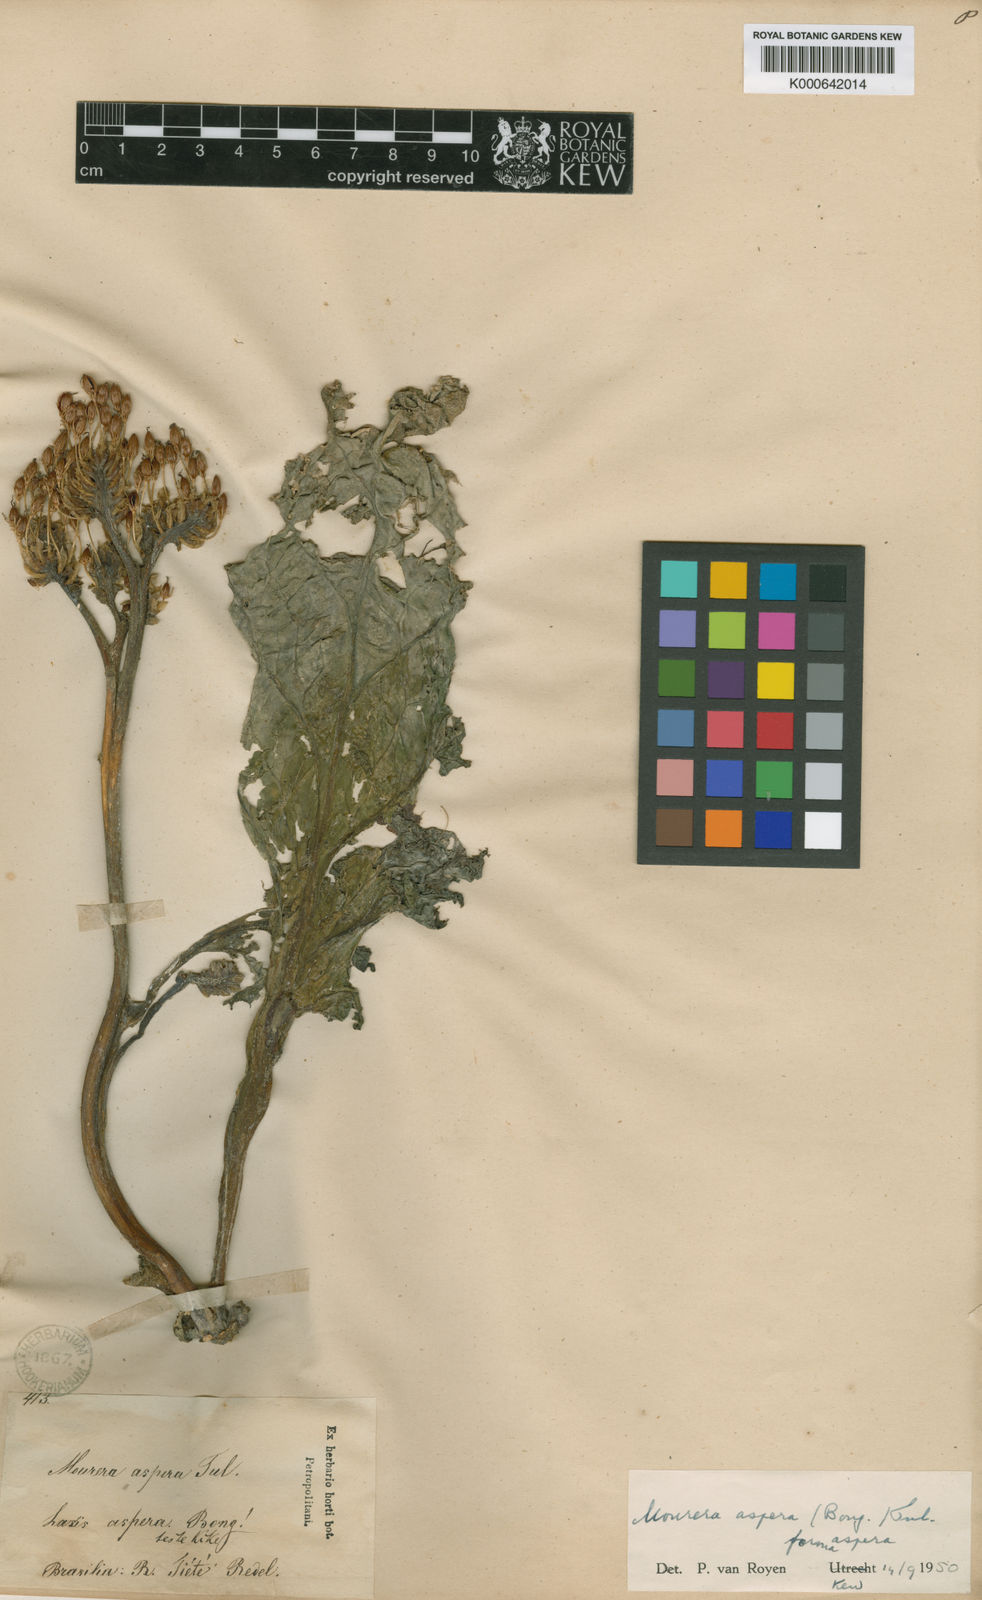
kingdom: Plantae
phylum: Tracheophyta
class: Magnoliopsida
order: Malpighiales
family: Podostemaceae
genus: Mourera
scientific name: Mourera aspera
